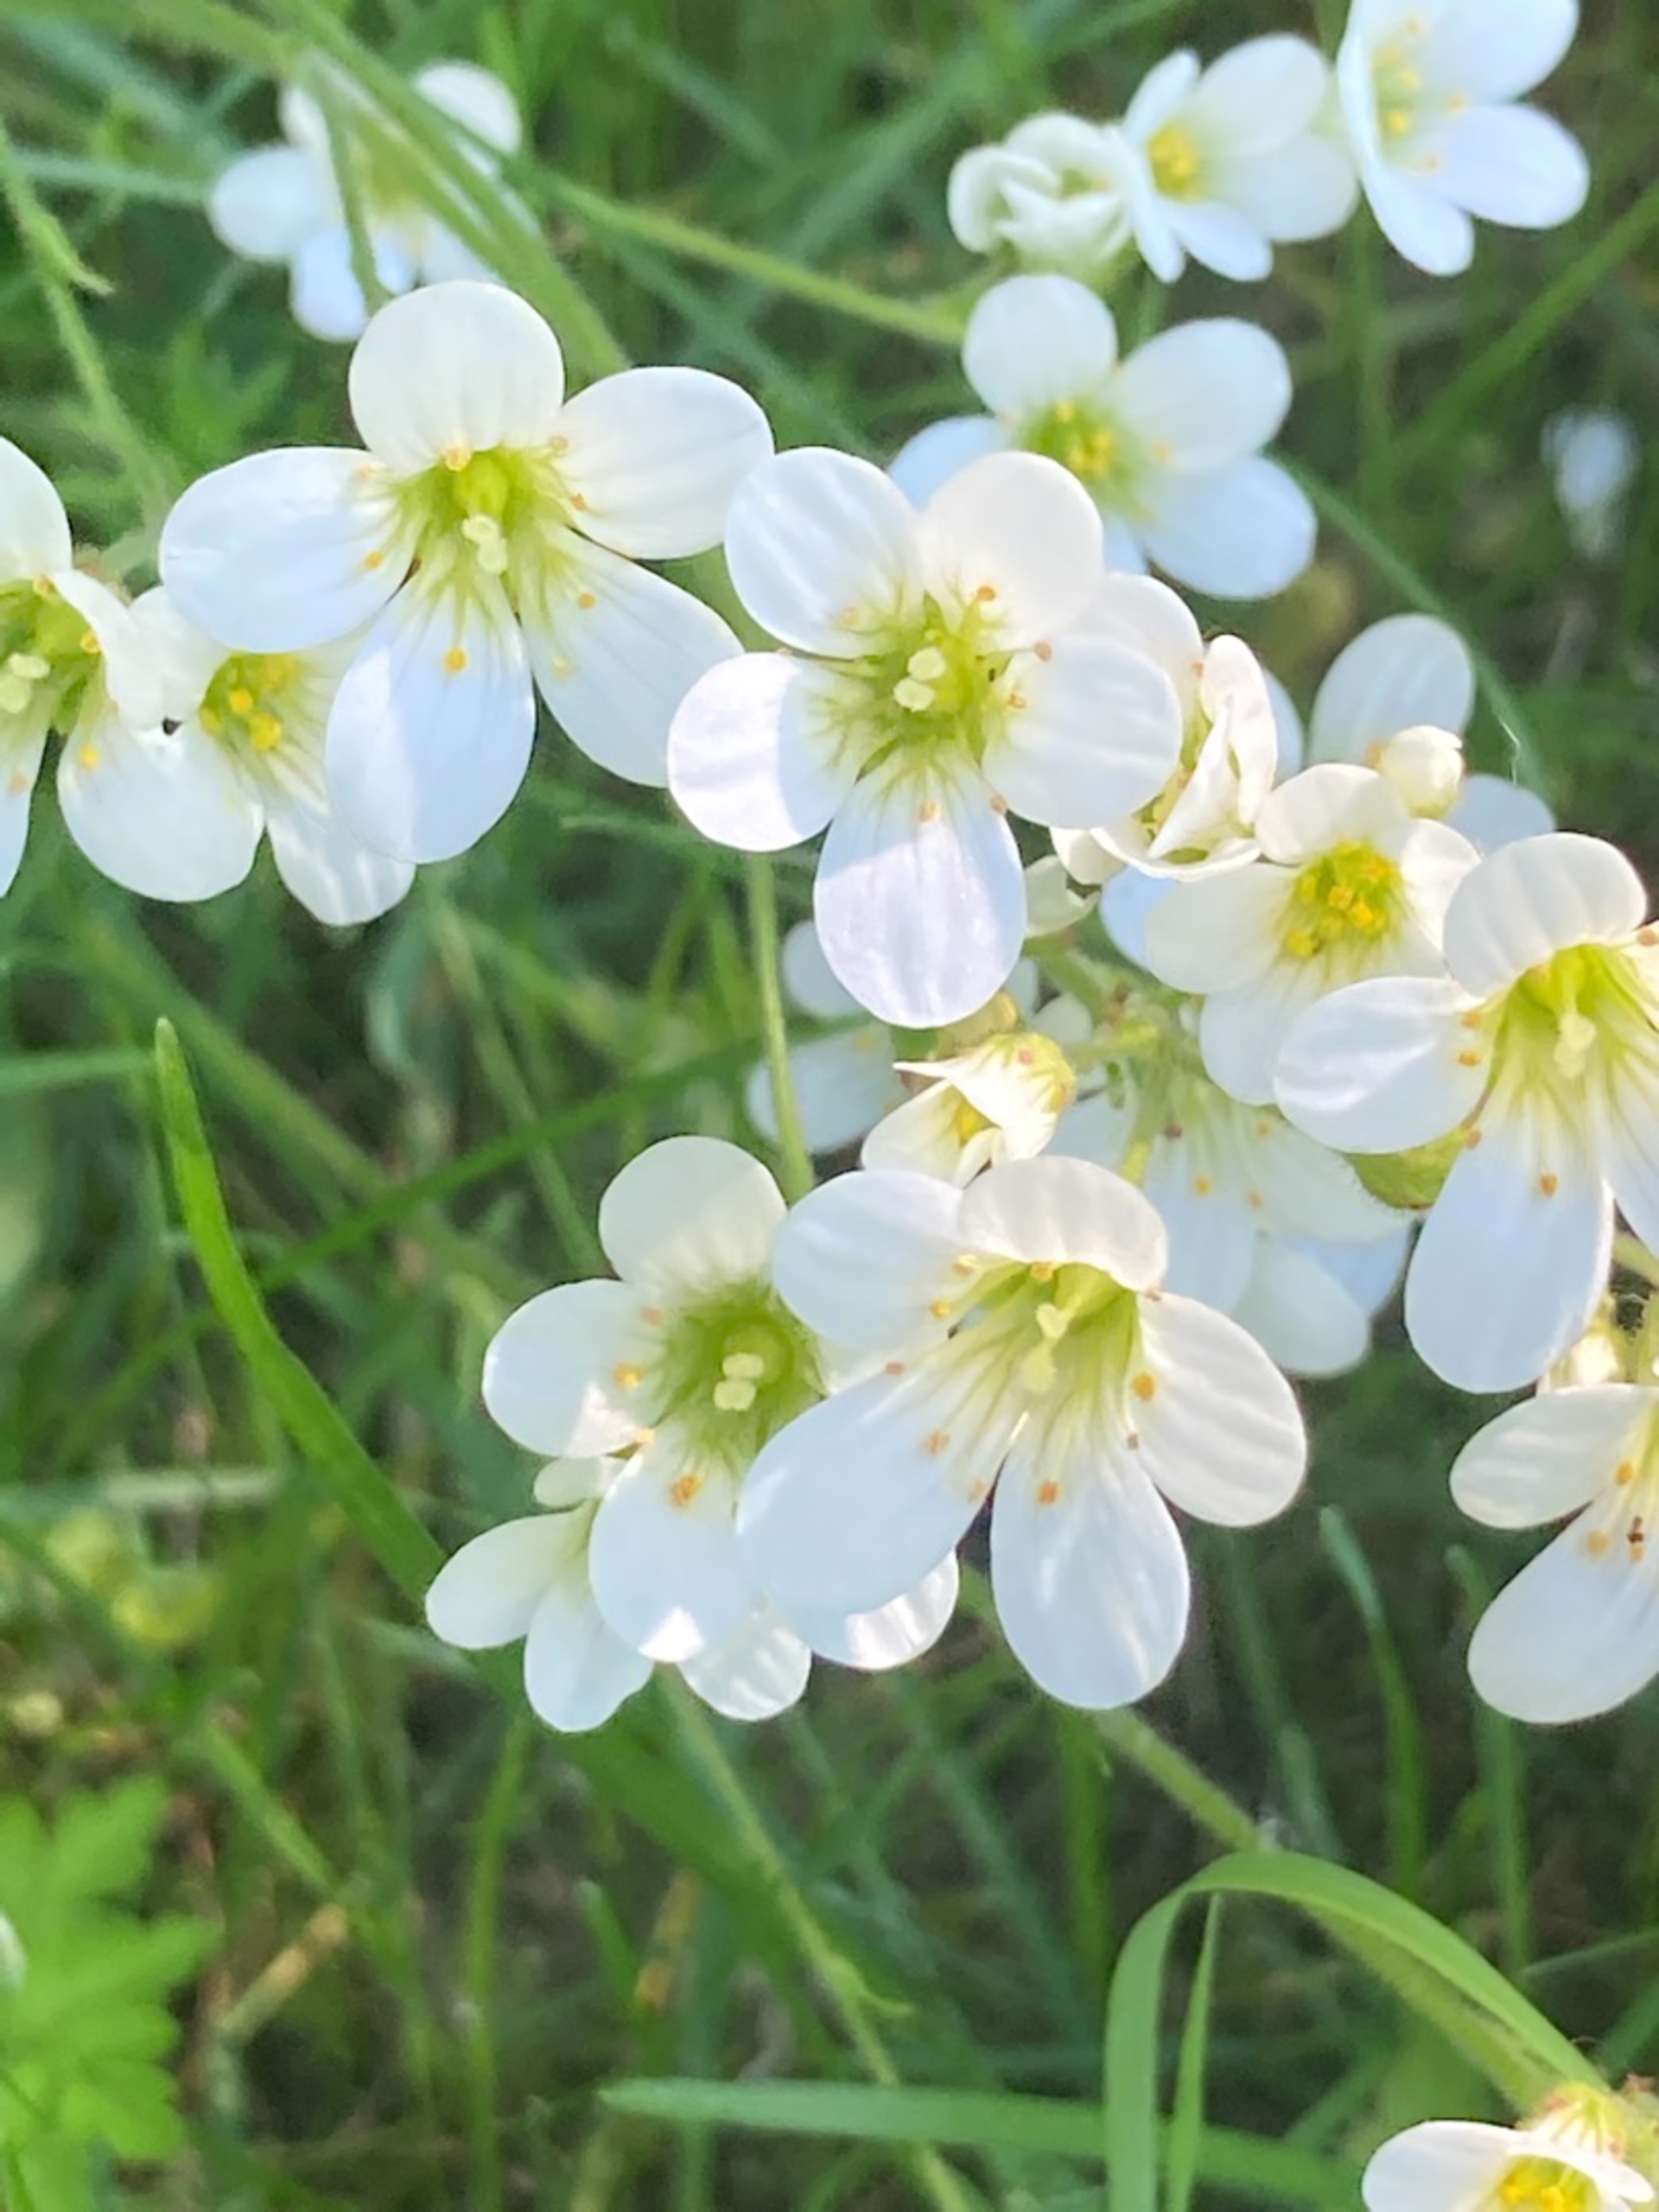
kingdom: Plantae
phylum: Tracheophyta
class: Magnoliopsida
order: Saxifragales
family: Saxifragaceae
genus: Saxifraga
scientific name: Saxifraga granulata
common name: Kornet stenbræk
